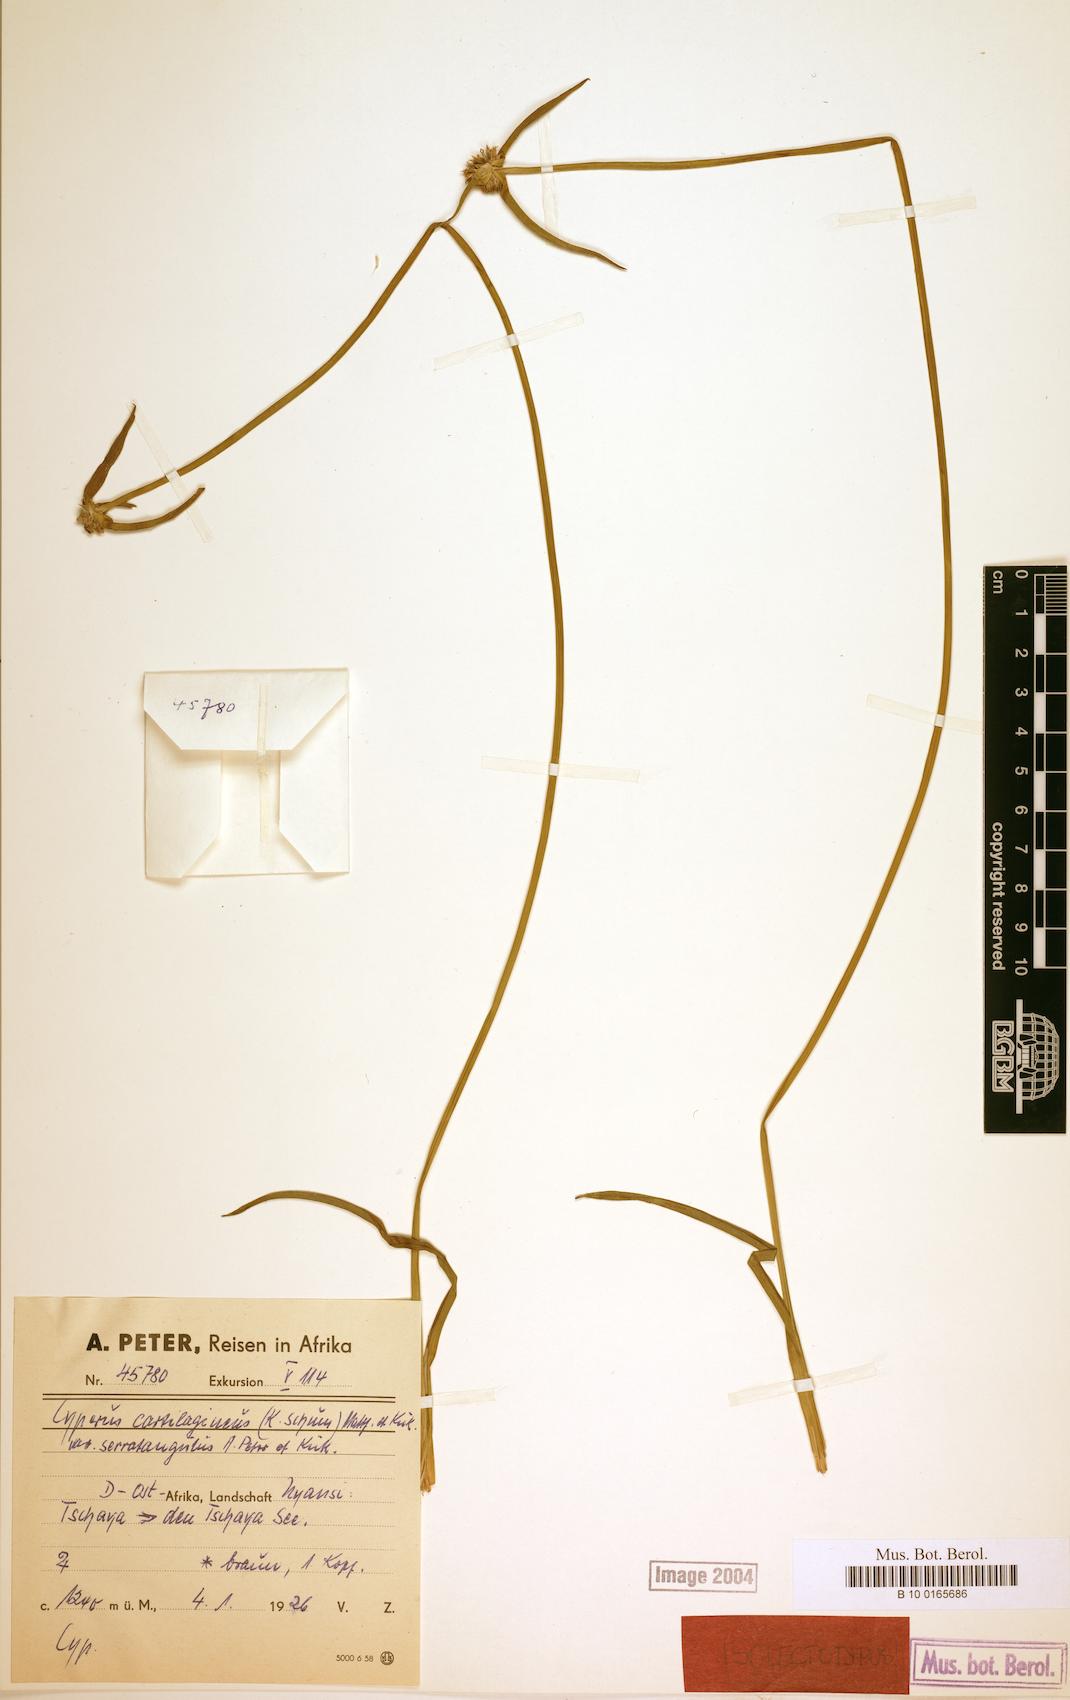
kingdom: Plantae
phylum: Tracheophyta
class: Liliopsida
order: Poales
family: Cyperaceae
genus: Cyperus
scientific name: Cyperus serratangulus
